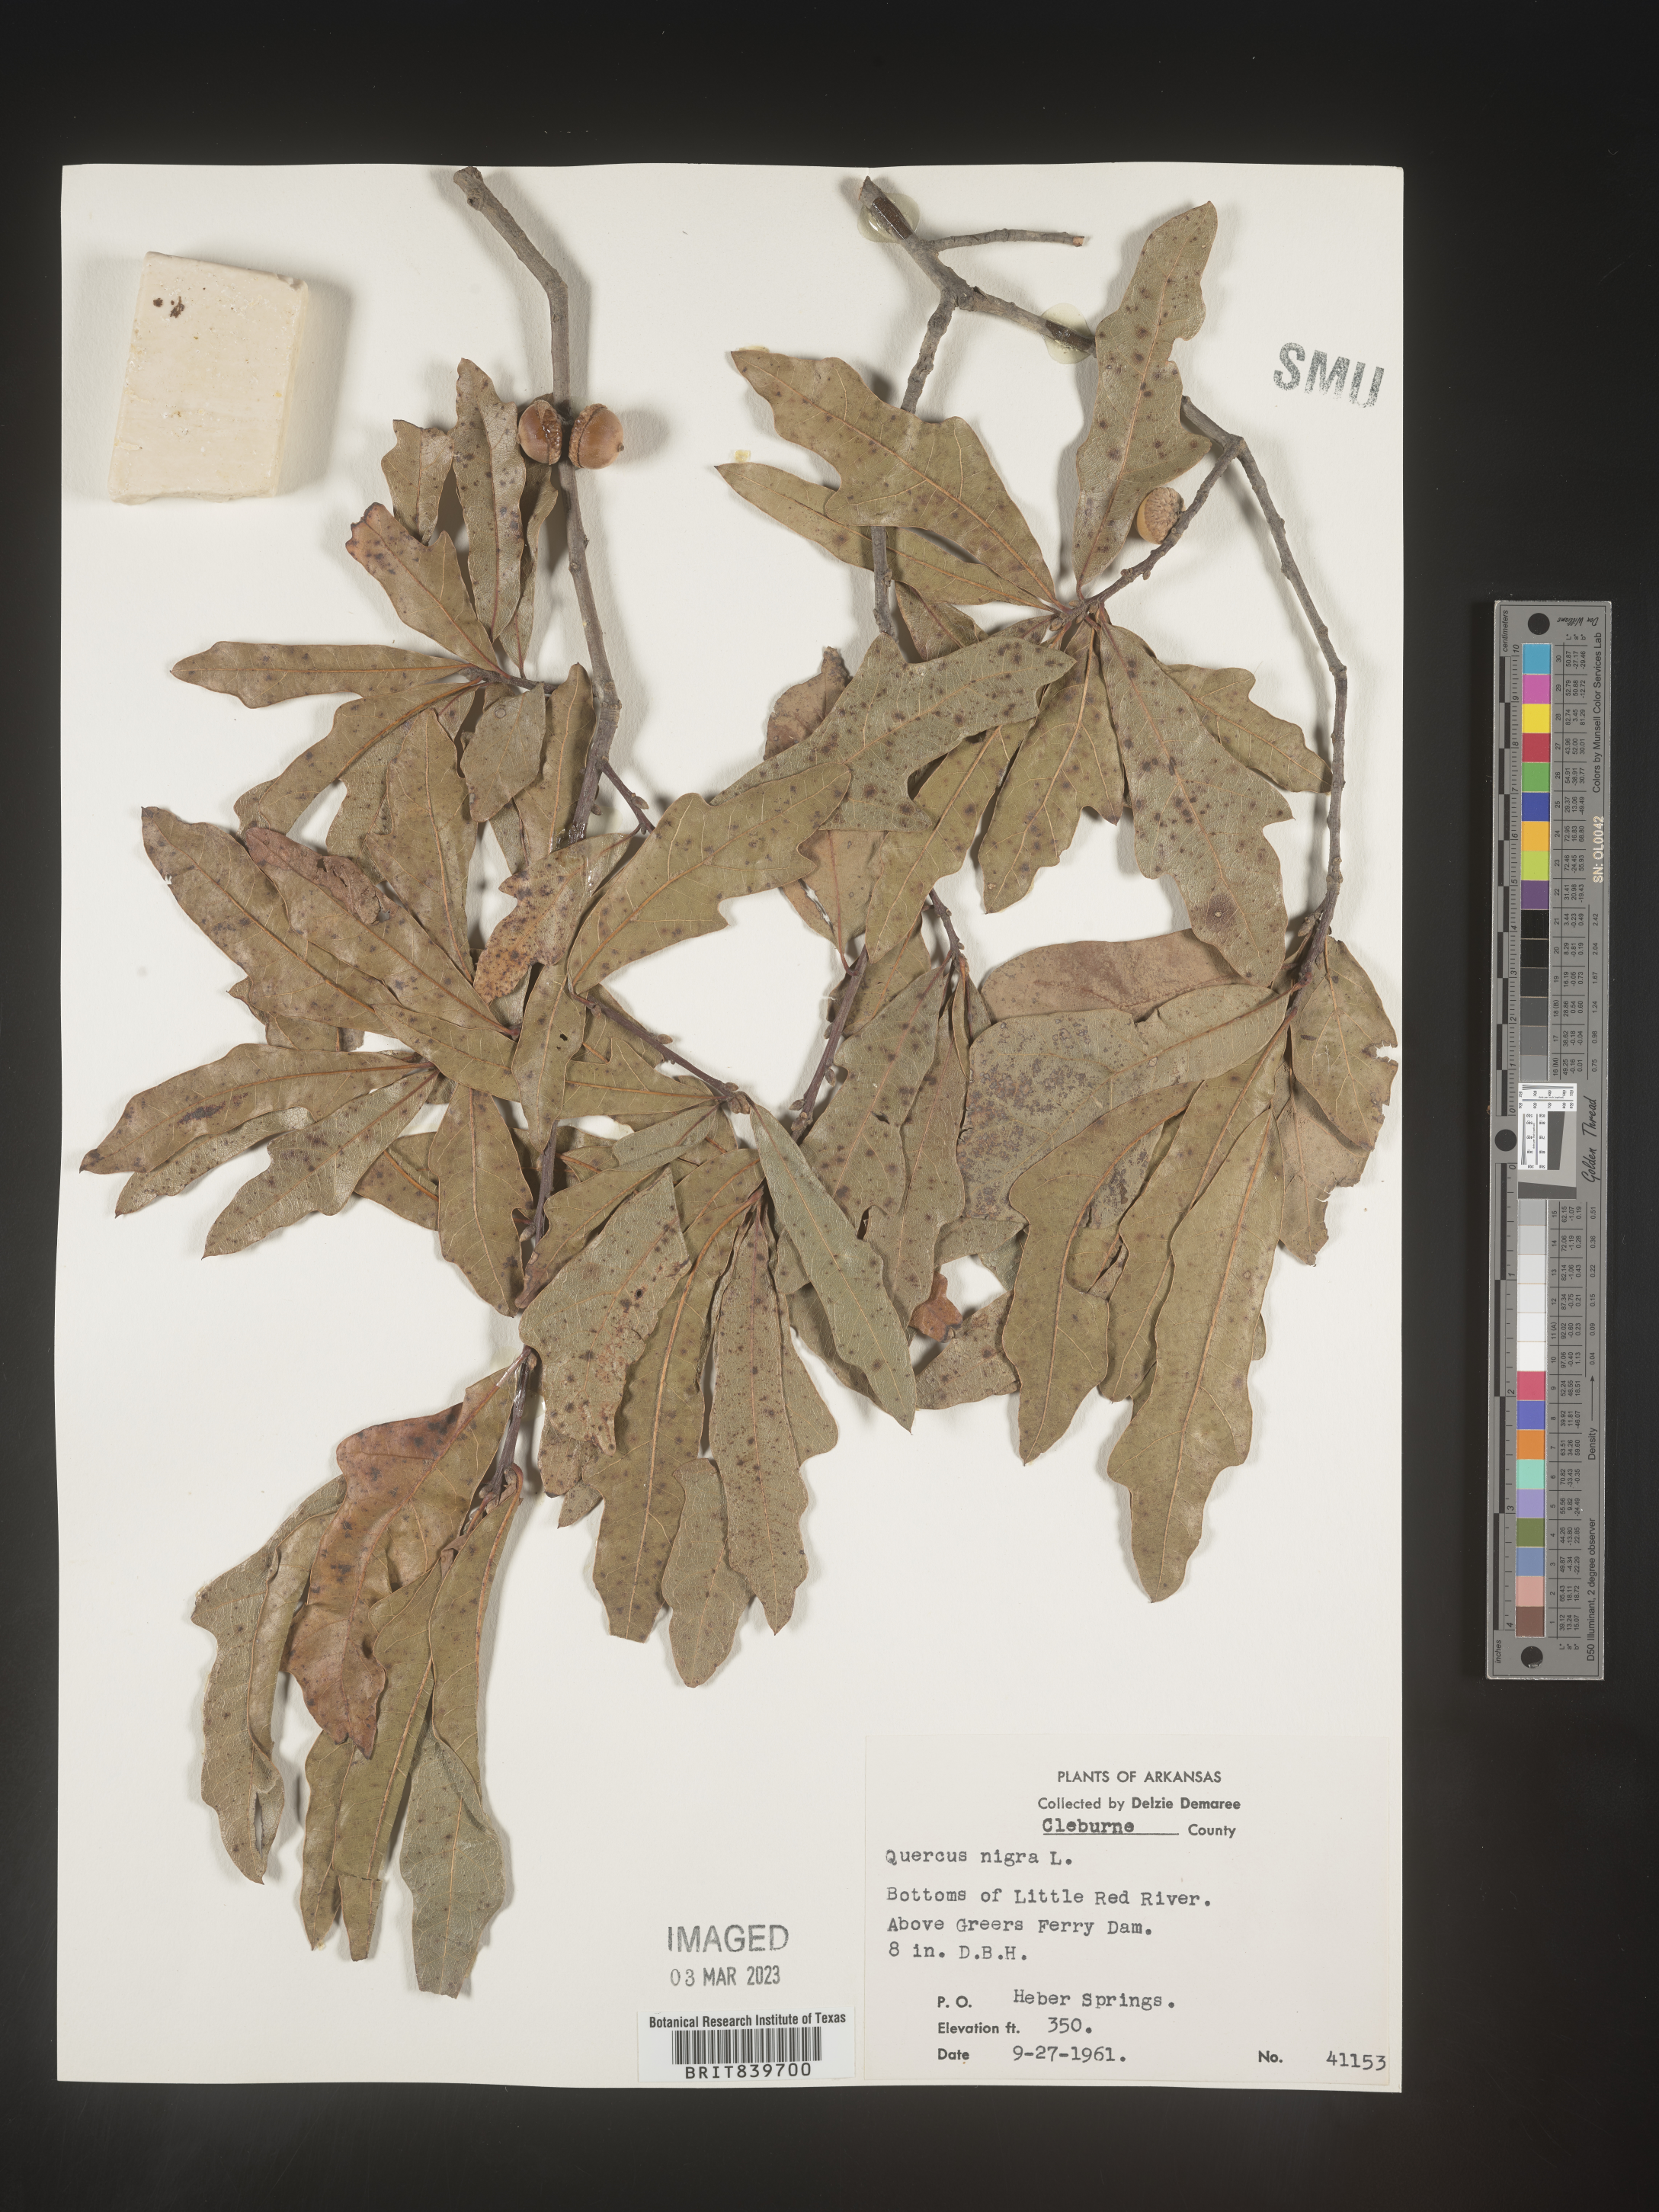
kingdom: Plantae
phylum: Tracheophyta
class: Magnoliopsida
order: Fagales
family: Fagaceae
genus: Quercus
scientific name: Quercus nigra
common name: Water oak
